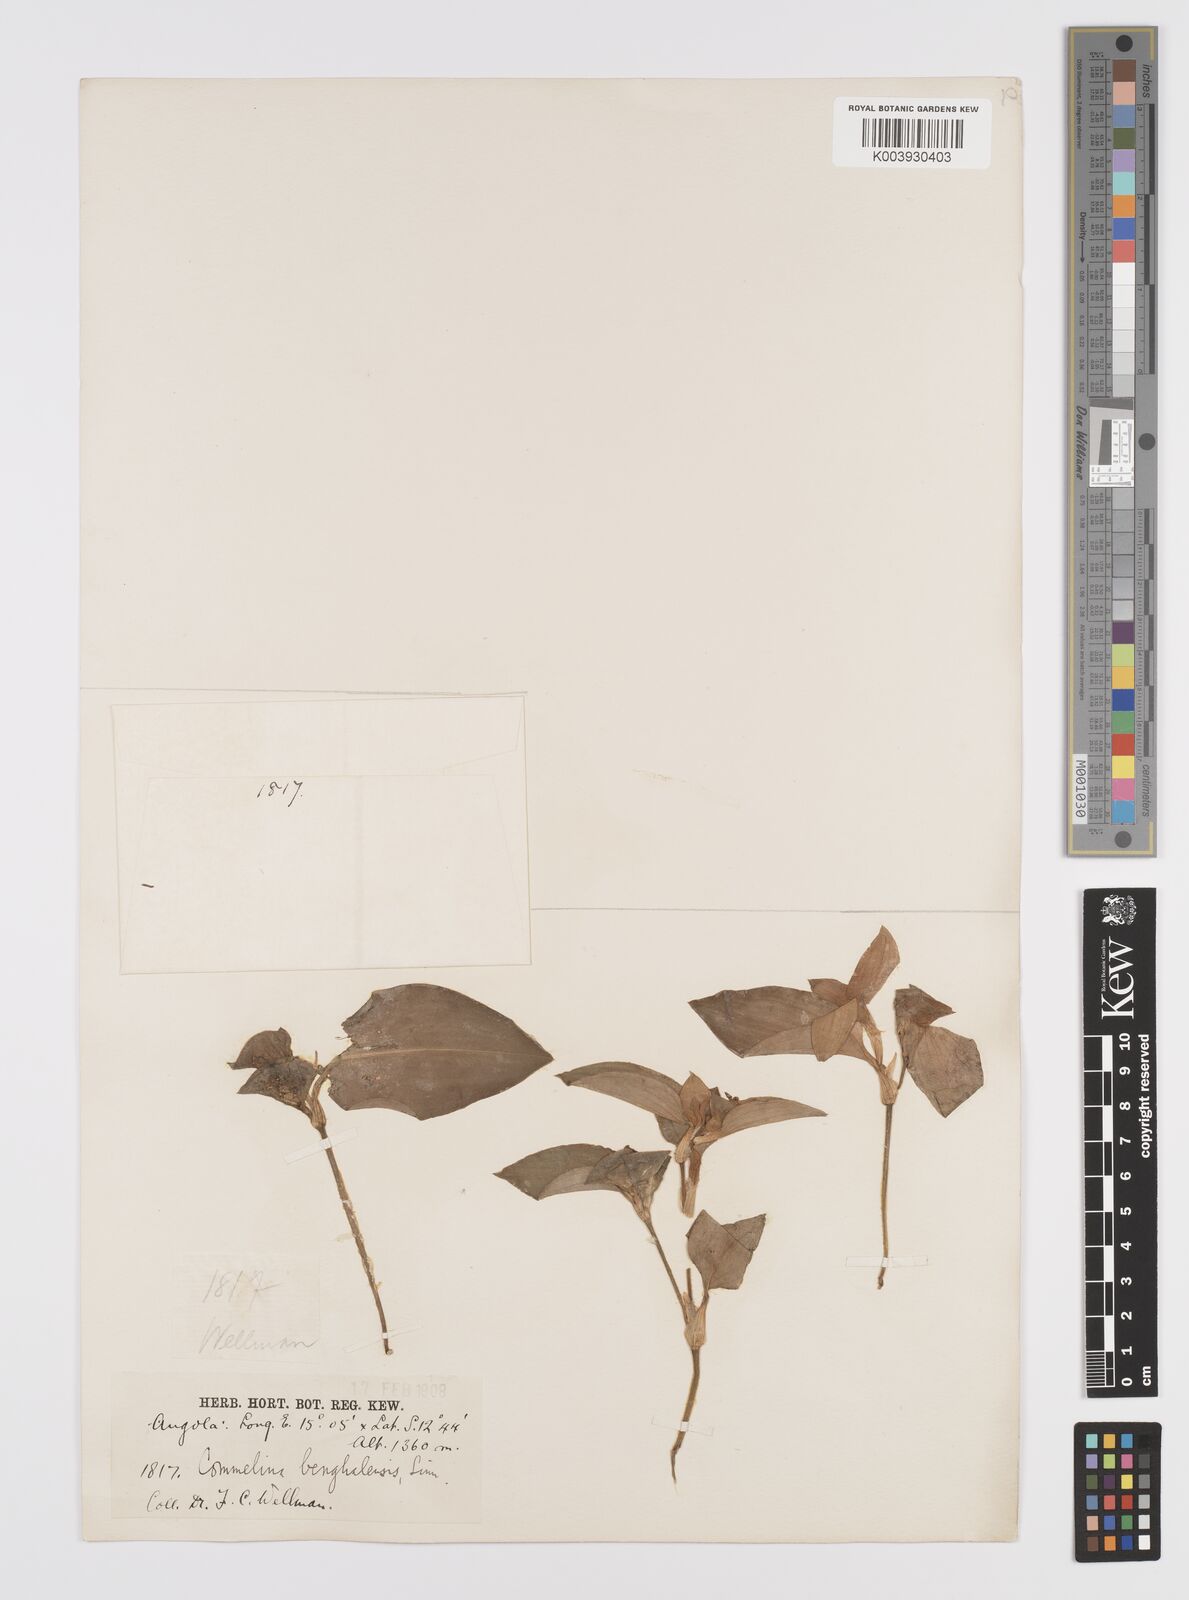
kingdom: Plantae
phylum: Tracheophyta
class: Liliopsida
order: Commelinales
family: Commelinaceae
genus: Commelina
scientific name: Commelina benghalensis
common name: Jio
